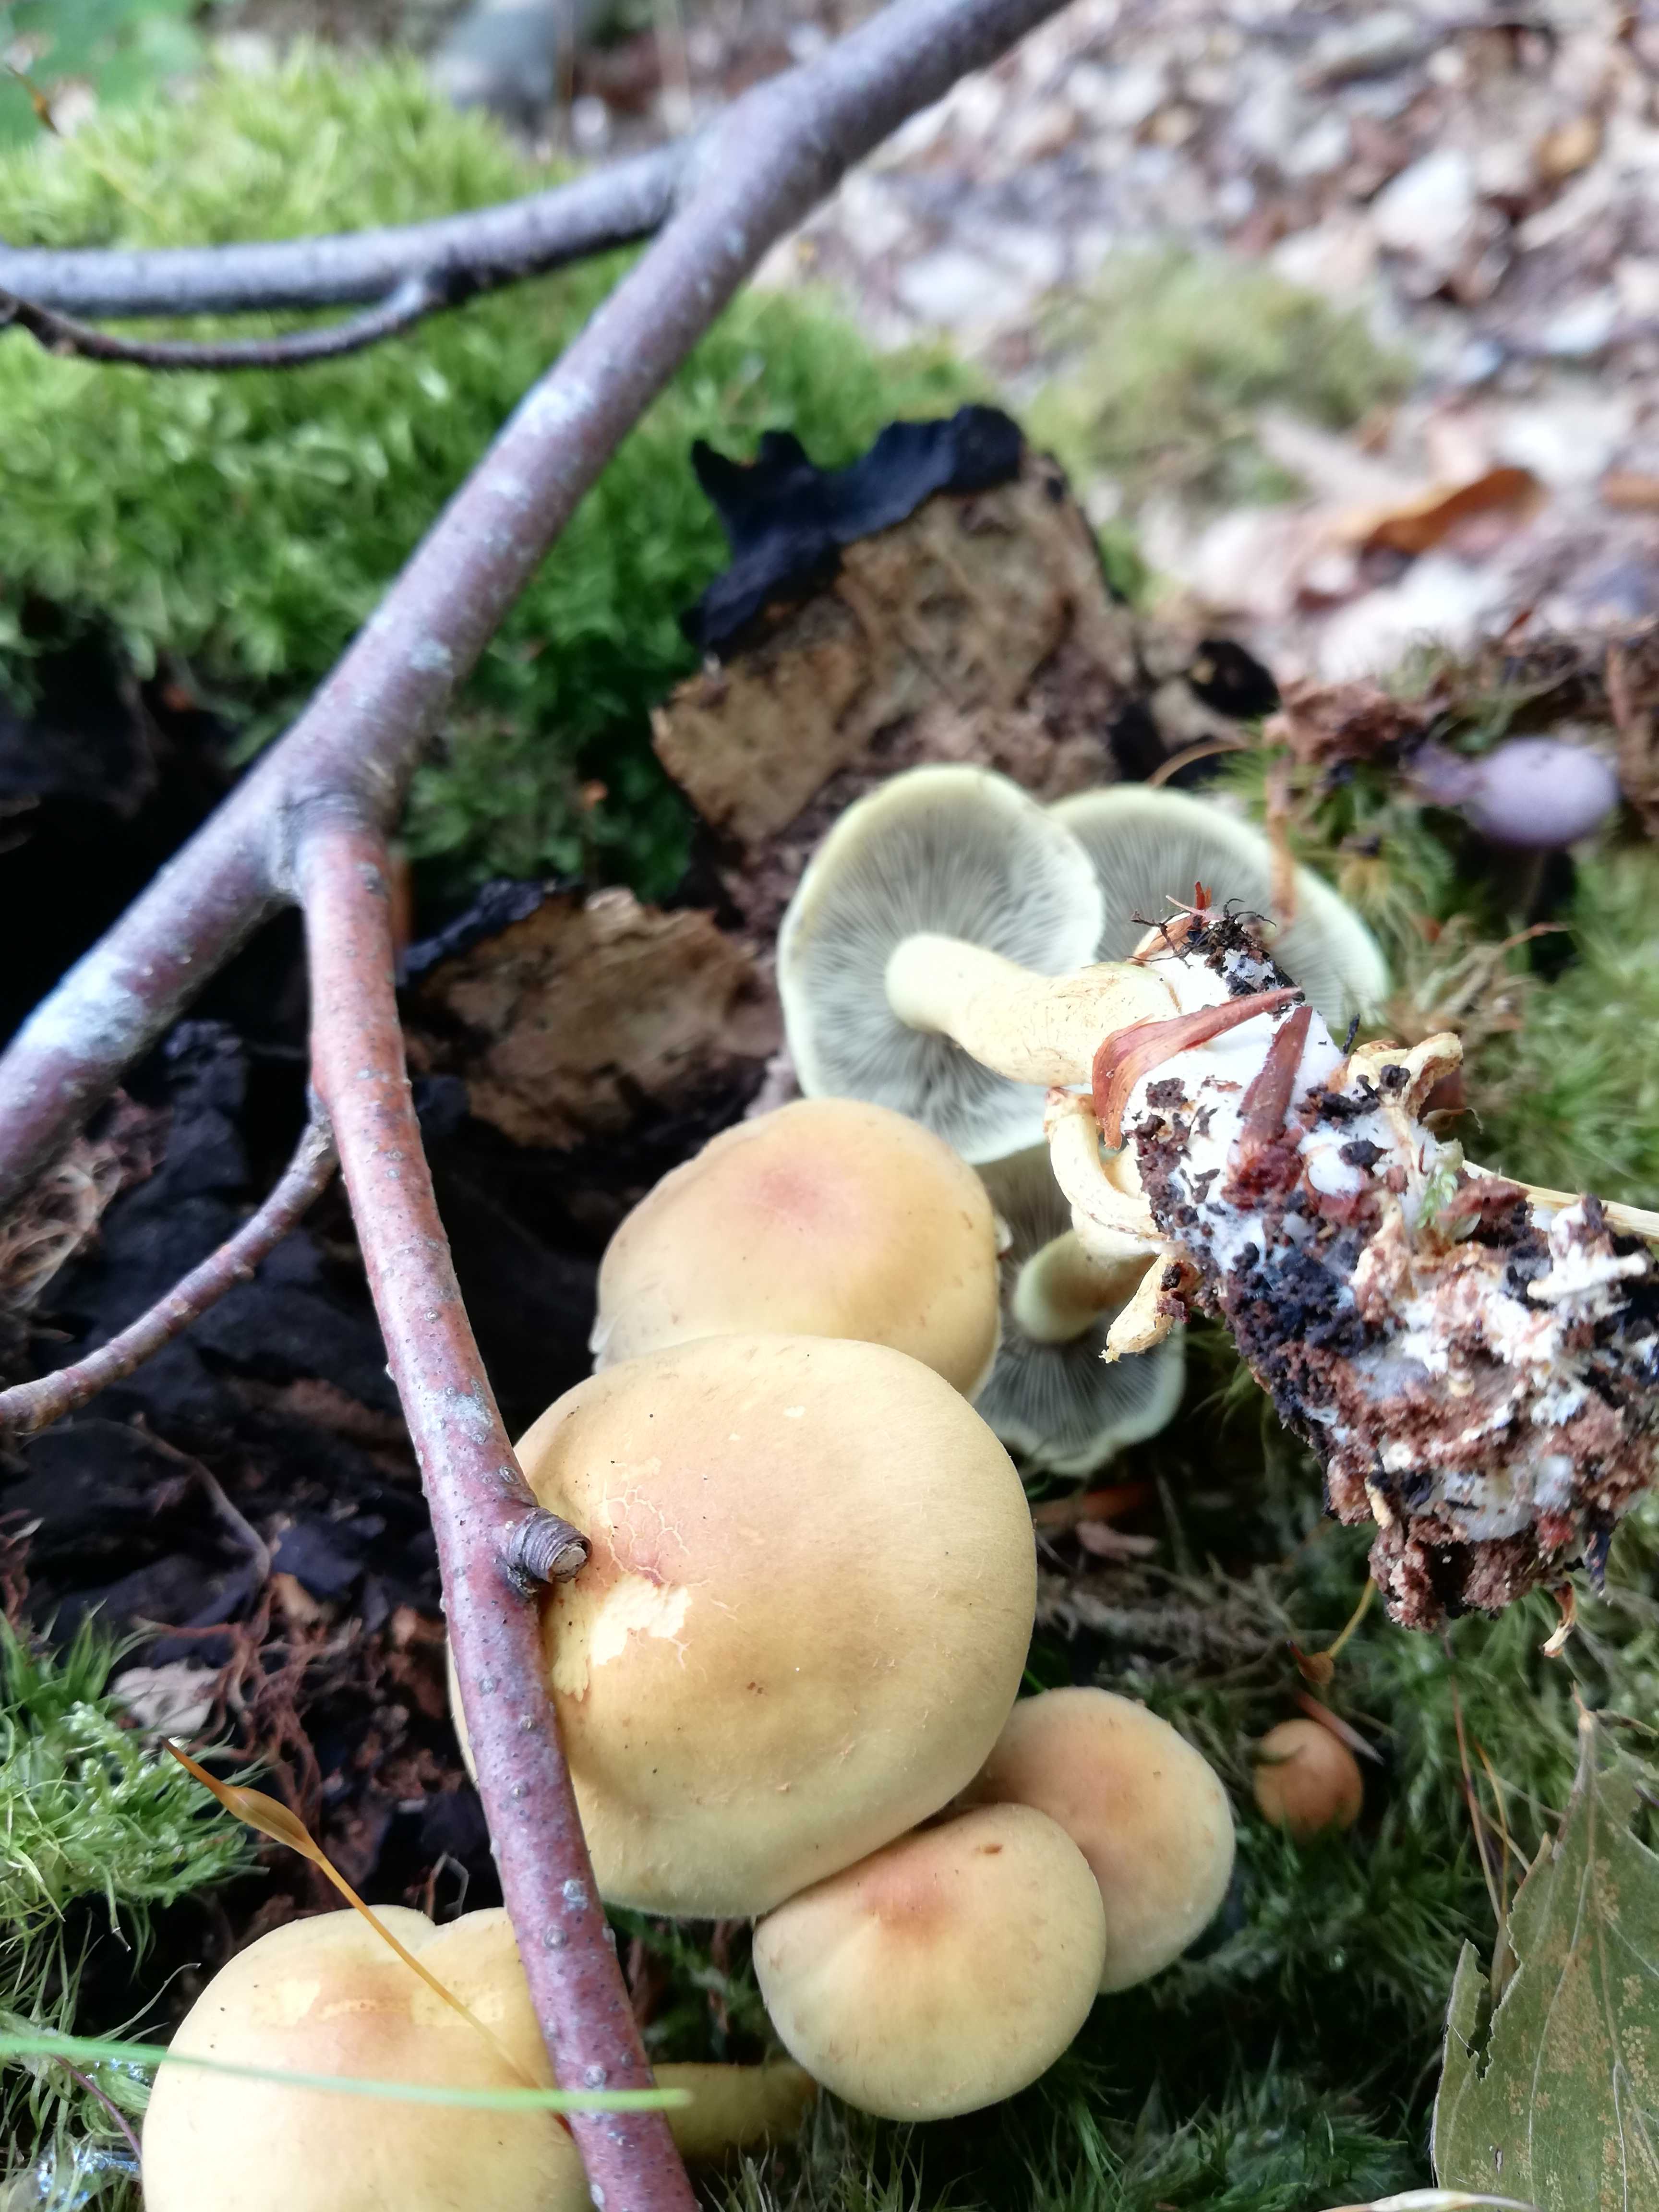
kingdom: Fungi
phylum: Basidiomycota
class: Agaricomycetes
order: Agaricales
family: Strophariaceae
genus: Hypholoma
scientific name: Hypholoma fasciculare
